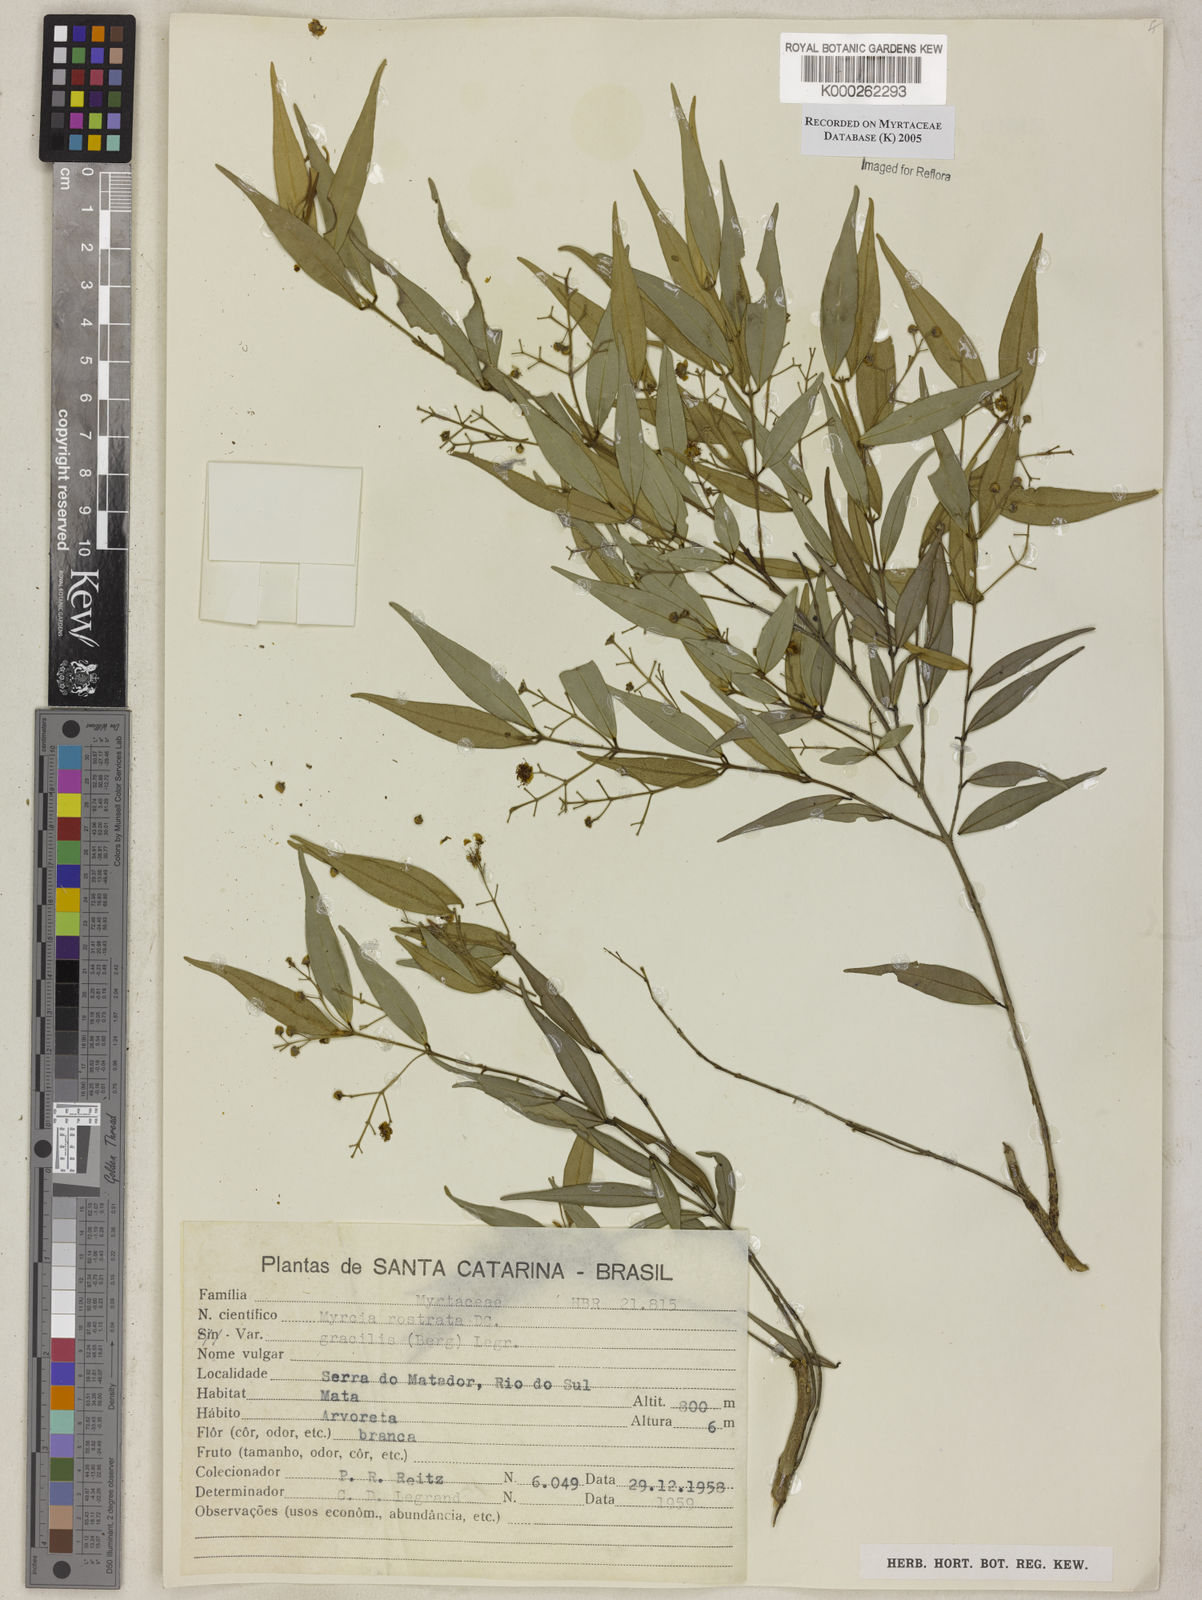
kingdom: Plantae
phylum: Tracheophyta
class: Magnoliopsida
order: Myrtales
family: Myrtaceae
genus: Myrcia
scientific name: Myrcia splendens
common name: Surinam cherry
